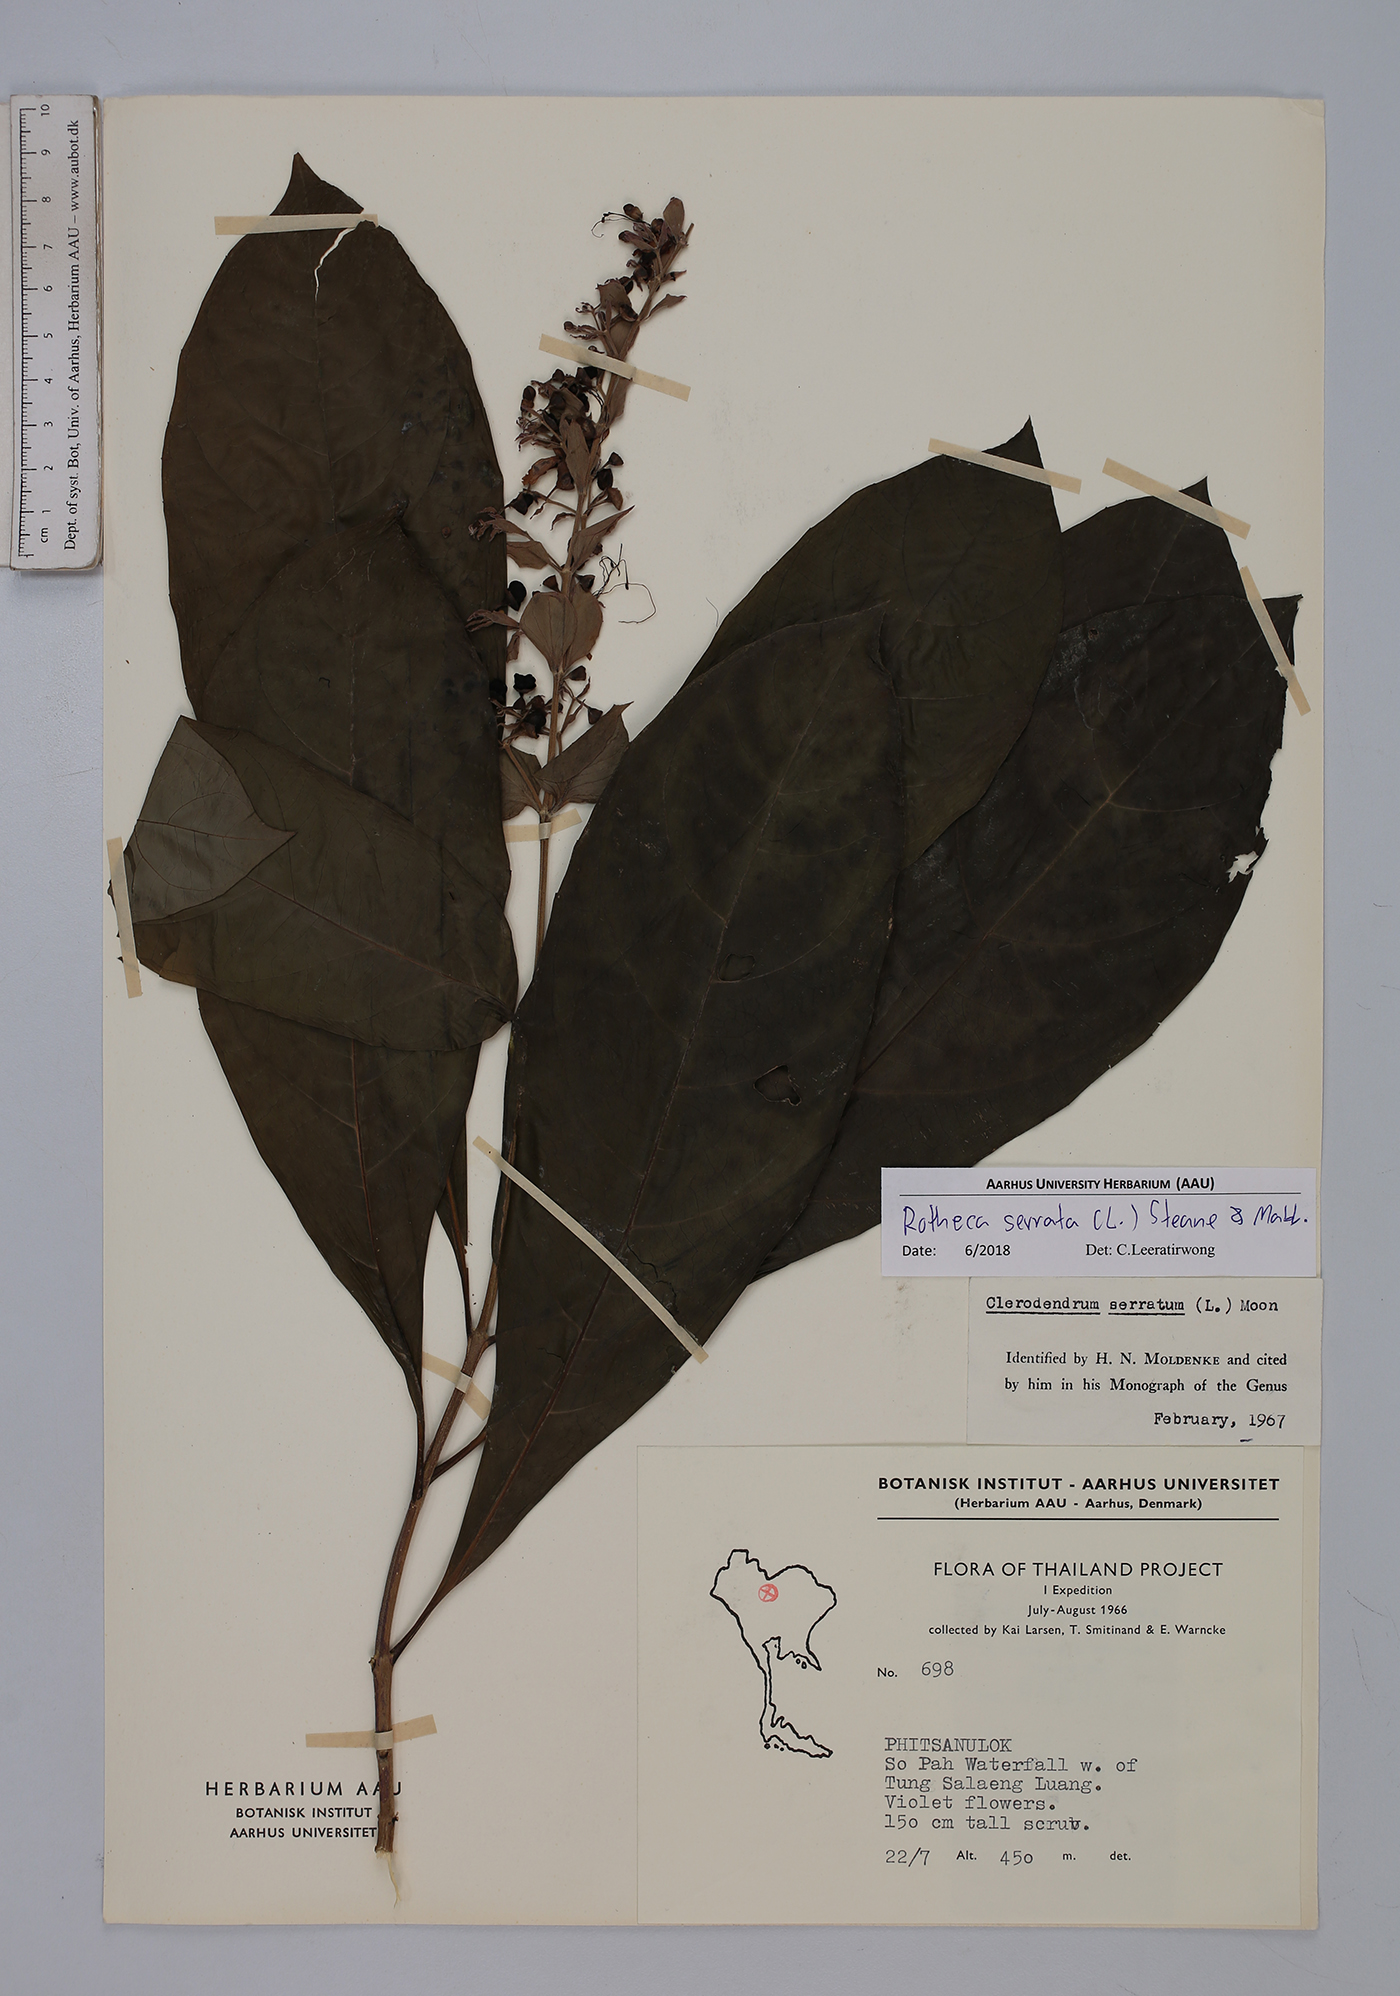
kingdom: Plantae
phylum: Tracheophyta
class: Magnoliopsida
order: Lamiales
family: Lamiaceae
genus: Rotheca
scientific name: Rotheca serrata
